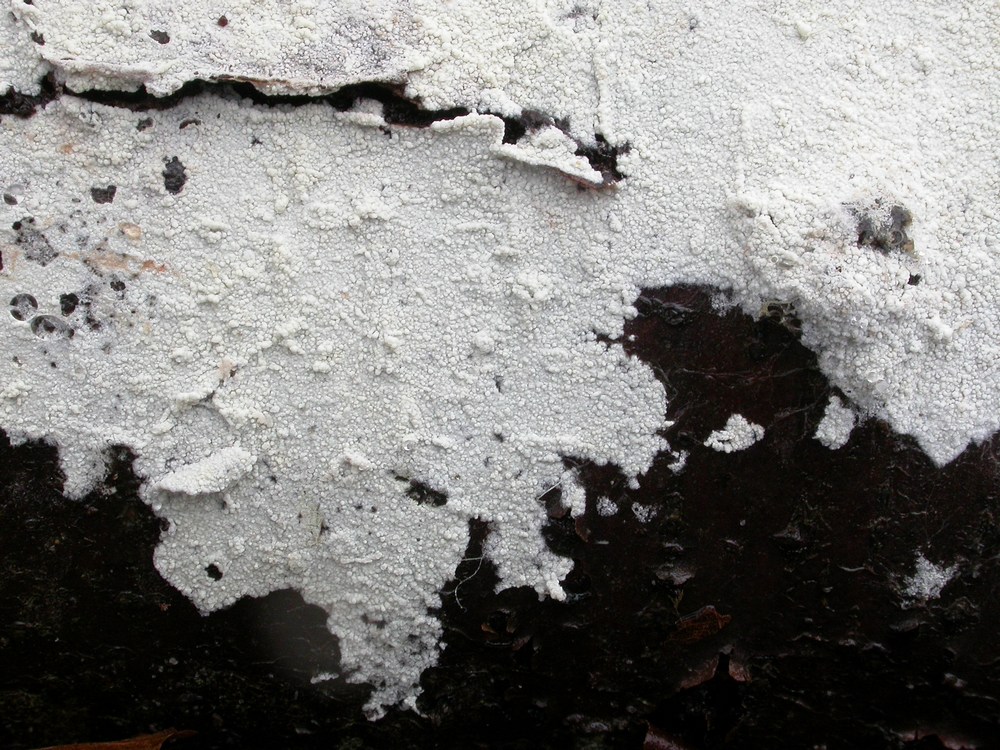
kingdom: Fungi
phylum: Basidiomycota
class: Agaricomycetes
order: Agaricales
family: Stephanosporaceae
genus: Cristinia
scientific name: Cristinia helvetica
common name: glatsporet citrushinde
